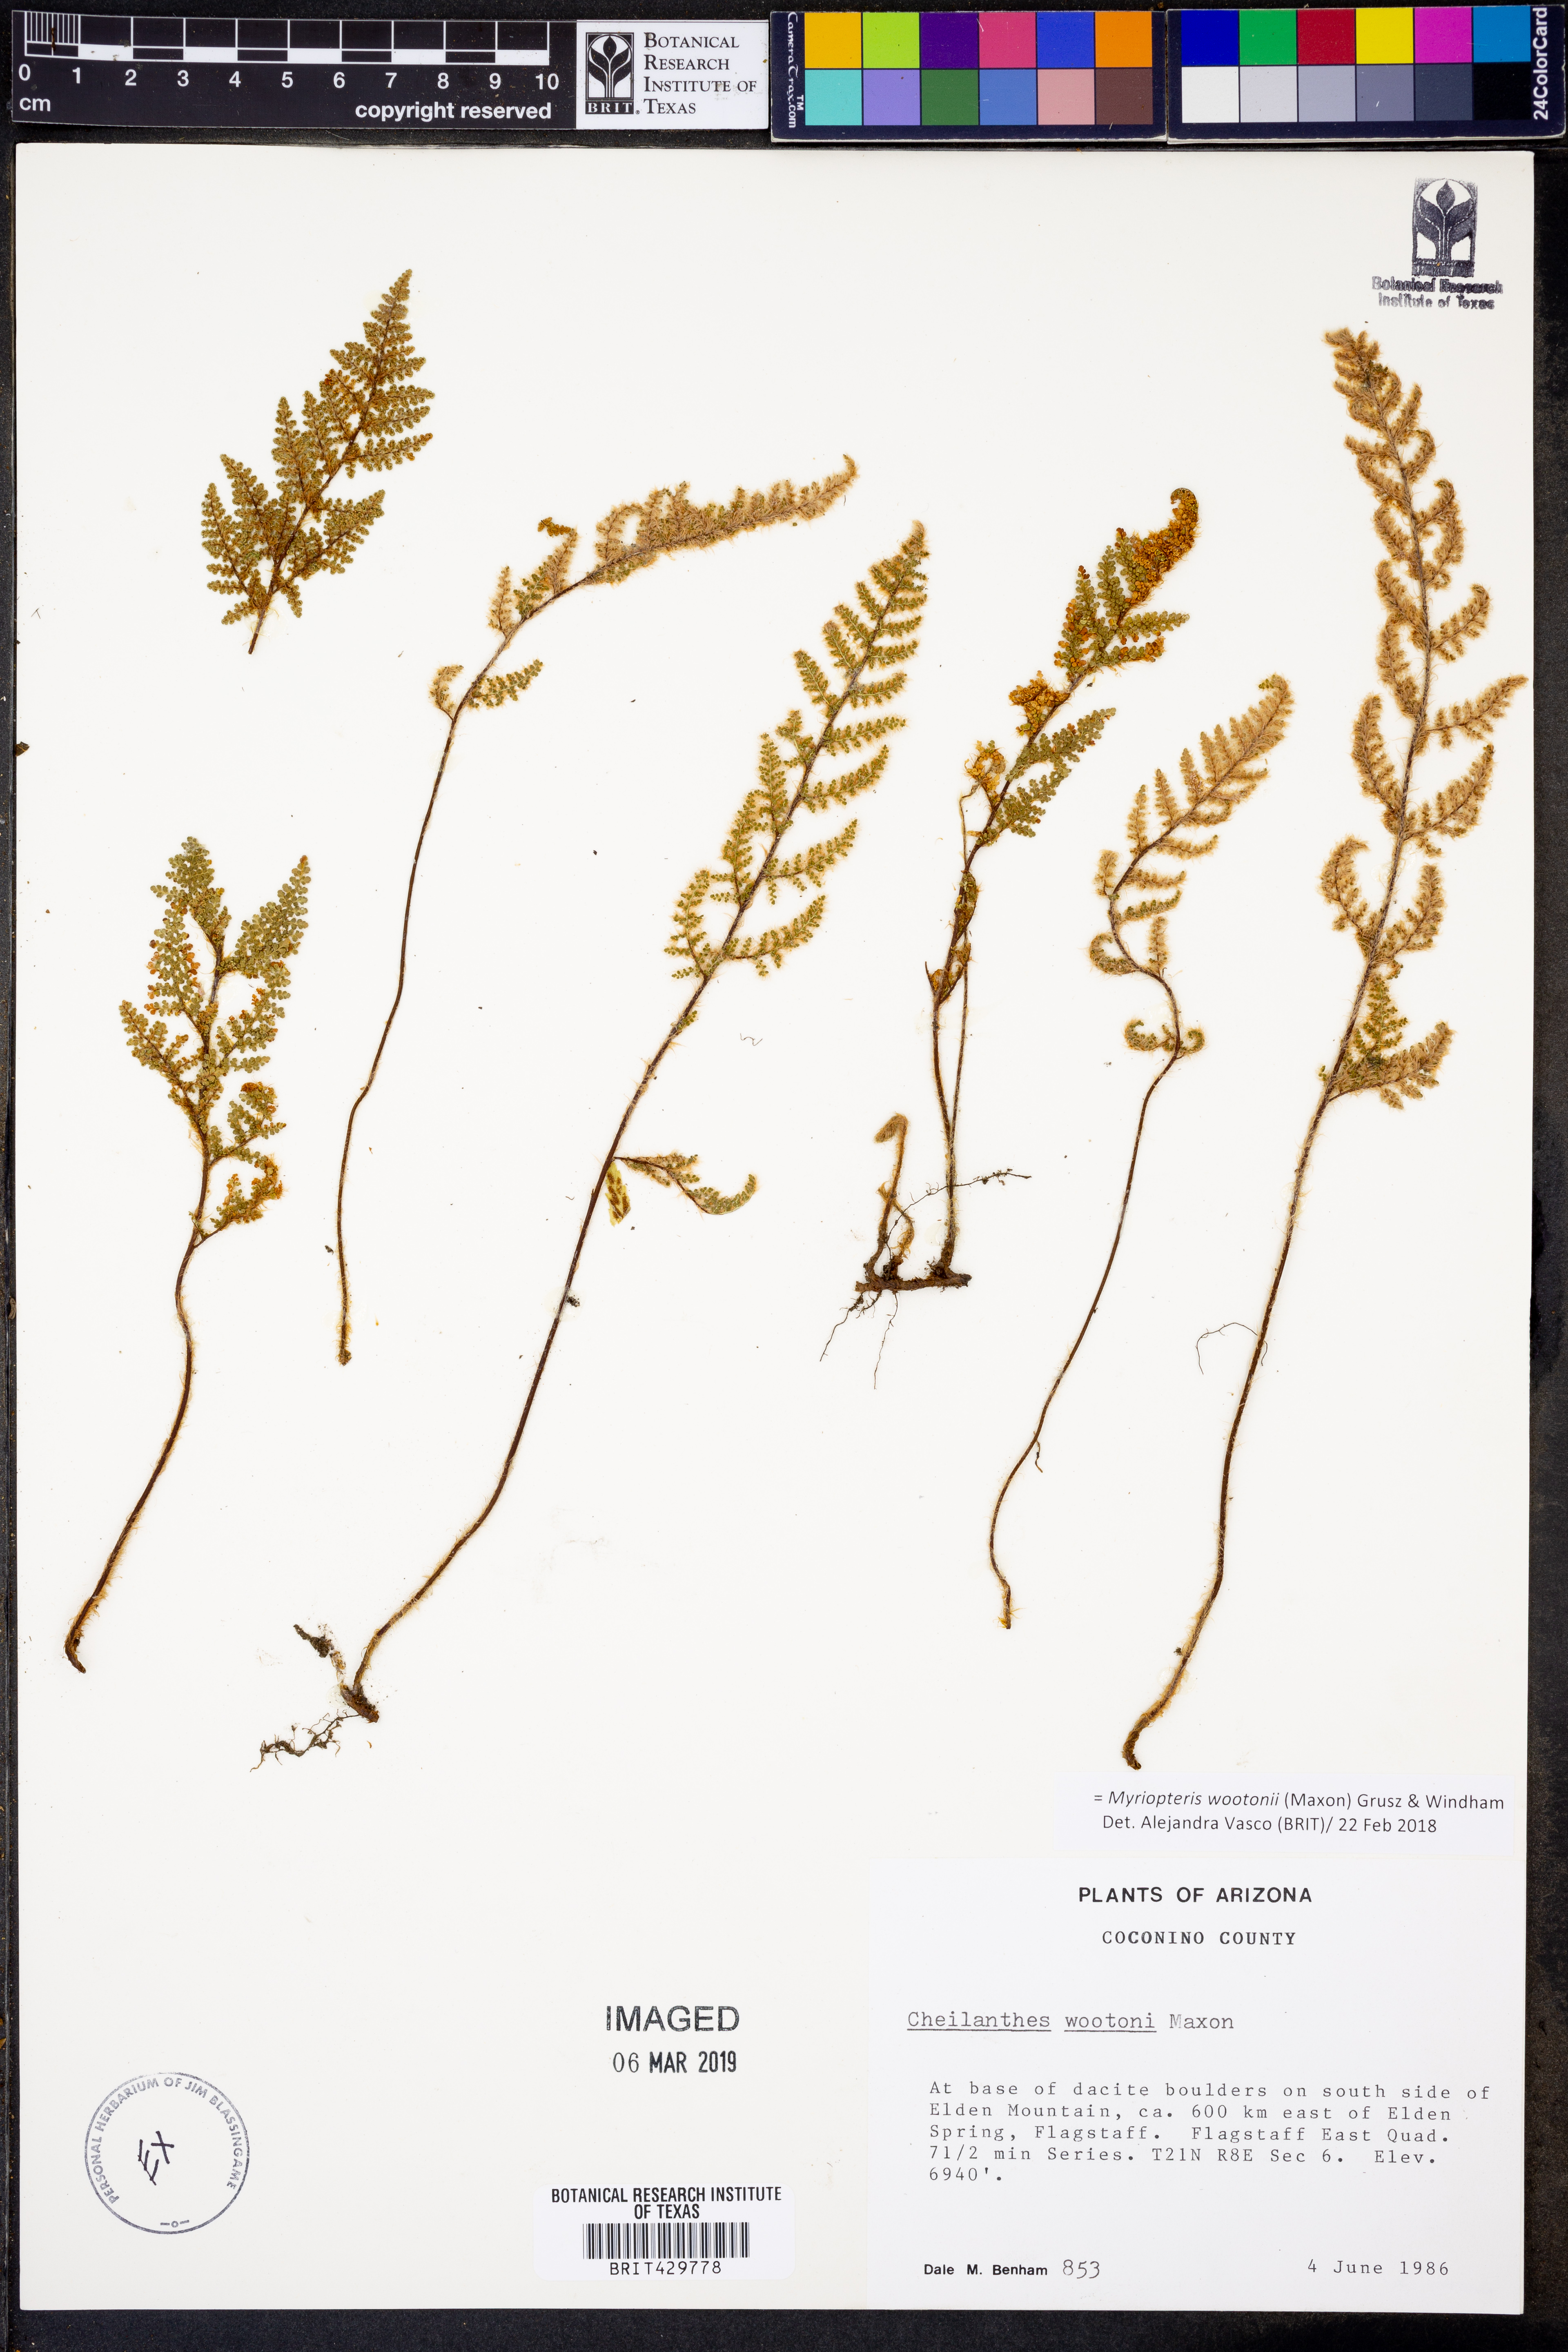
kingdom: Plantae
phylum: Tracheophyta
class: Polypodiopsida
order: Polypodiales
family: Pteridaceae
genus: Myriopteris
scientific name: Myriopteris wootonii
